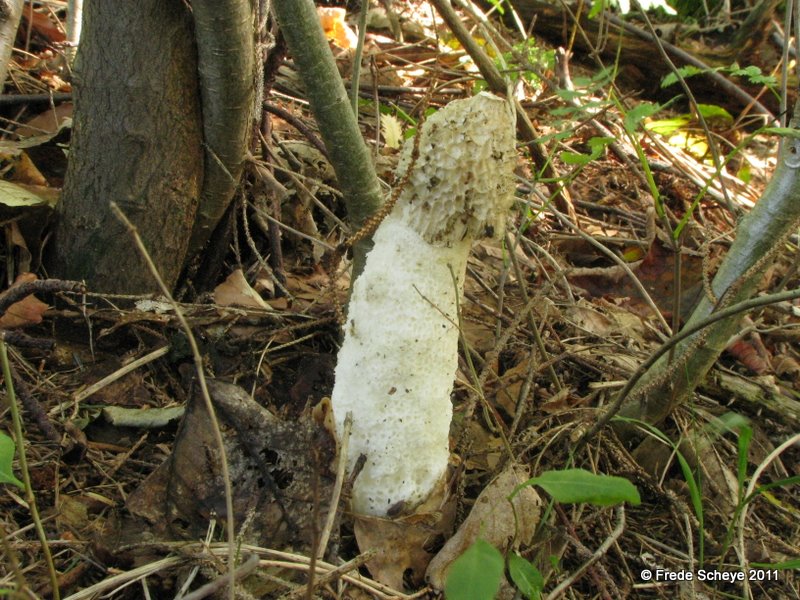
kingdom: Fungi
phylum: Basidiomycota
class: Agaricomycetes
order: Phallales
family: Phallaceae
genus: Phallus
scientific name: Phallus impudicus
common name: almindelig stinksvamp
